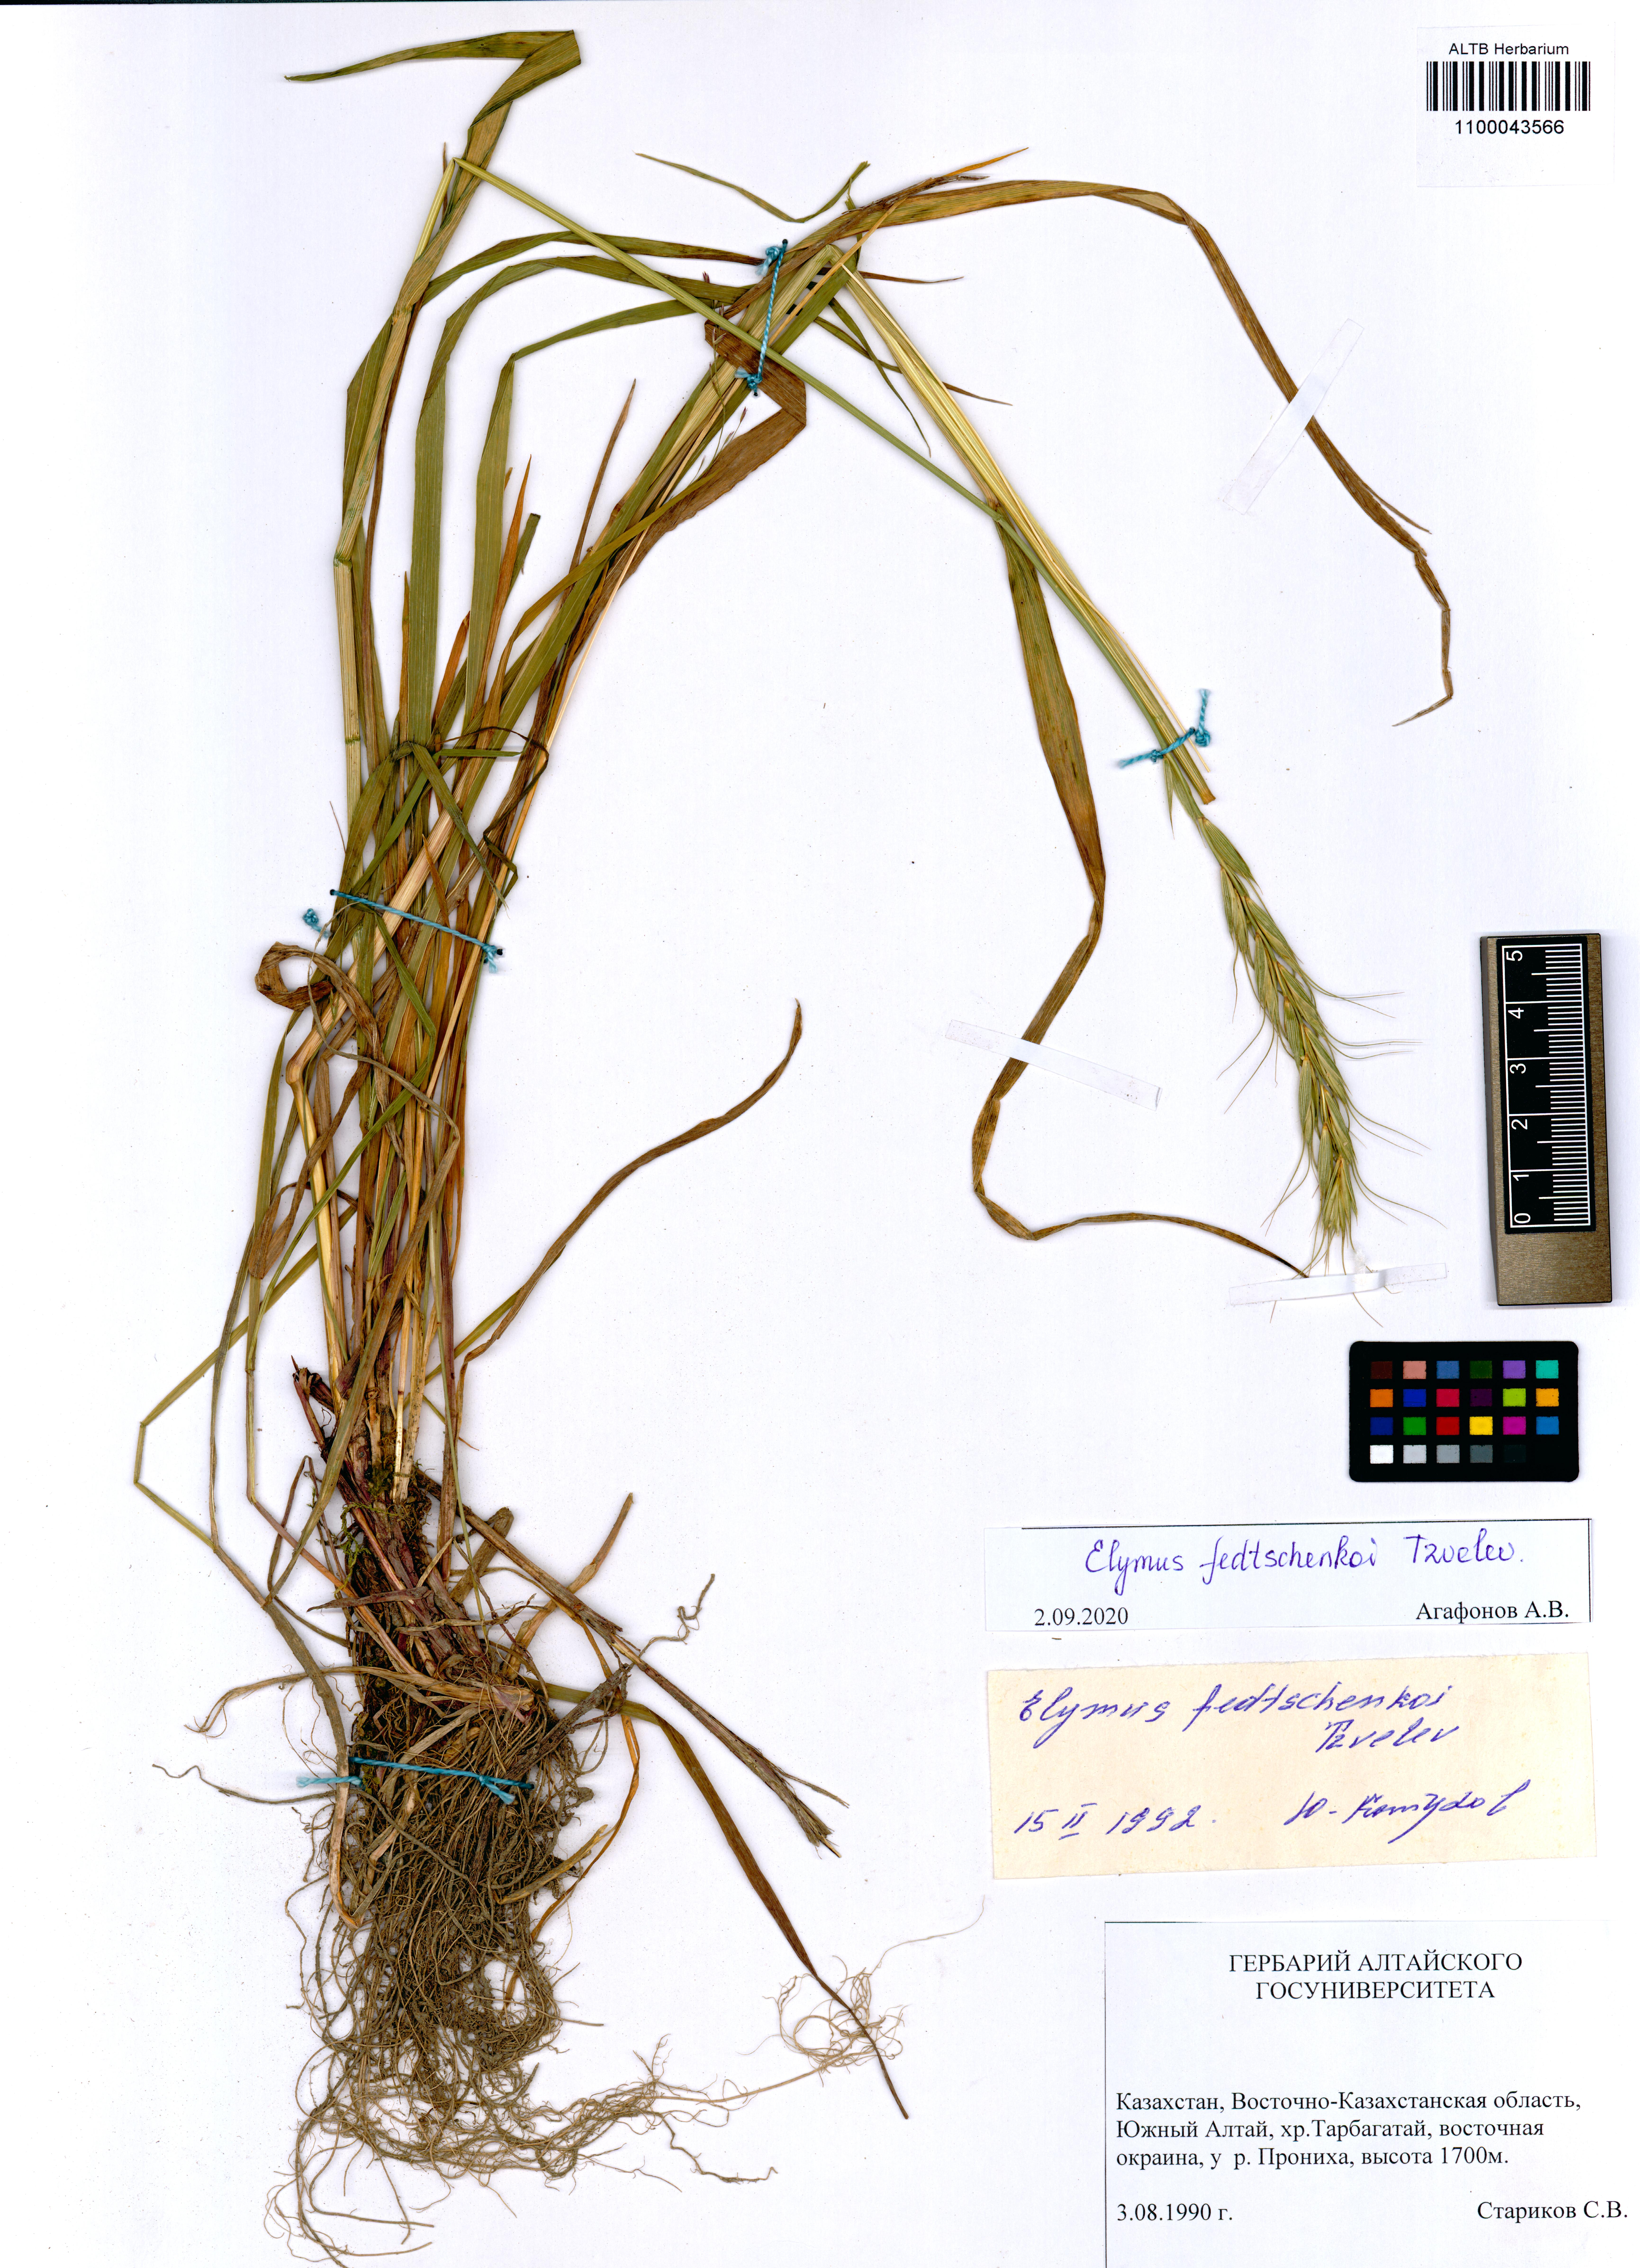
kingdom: Plantae
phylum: Tracheophyta
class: Liliopsida
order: Poales
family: Poaceae
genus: Elymus
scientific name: Elymus fedtschenkoi
